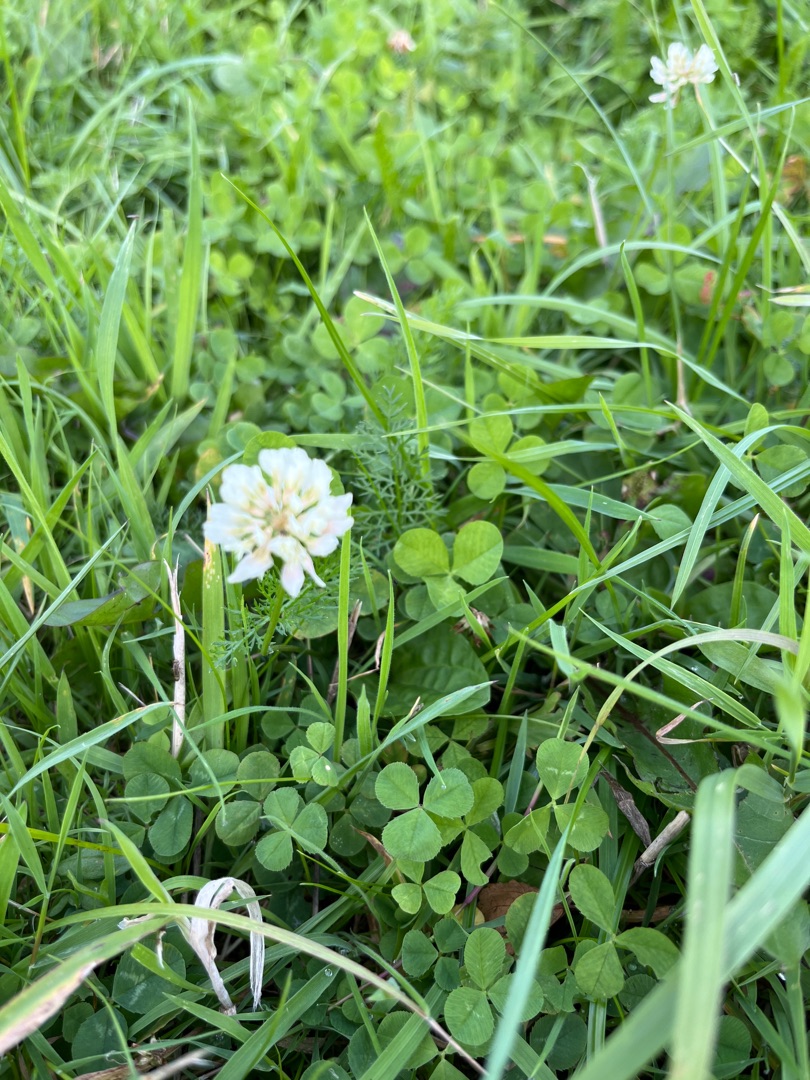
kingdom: Plantae
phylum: Tracheophyta
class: Magnoliopsida
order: Fabales
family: Fabaceae
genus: Trifolium
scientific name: Trifolium repens
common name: Hvid-kløver
